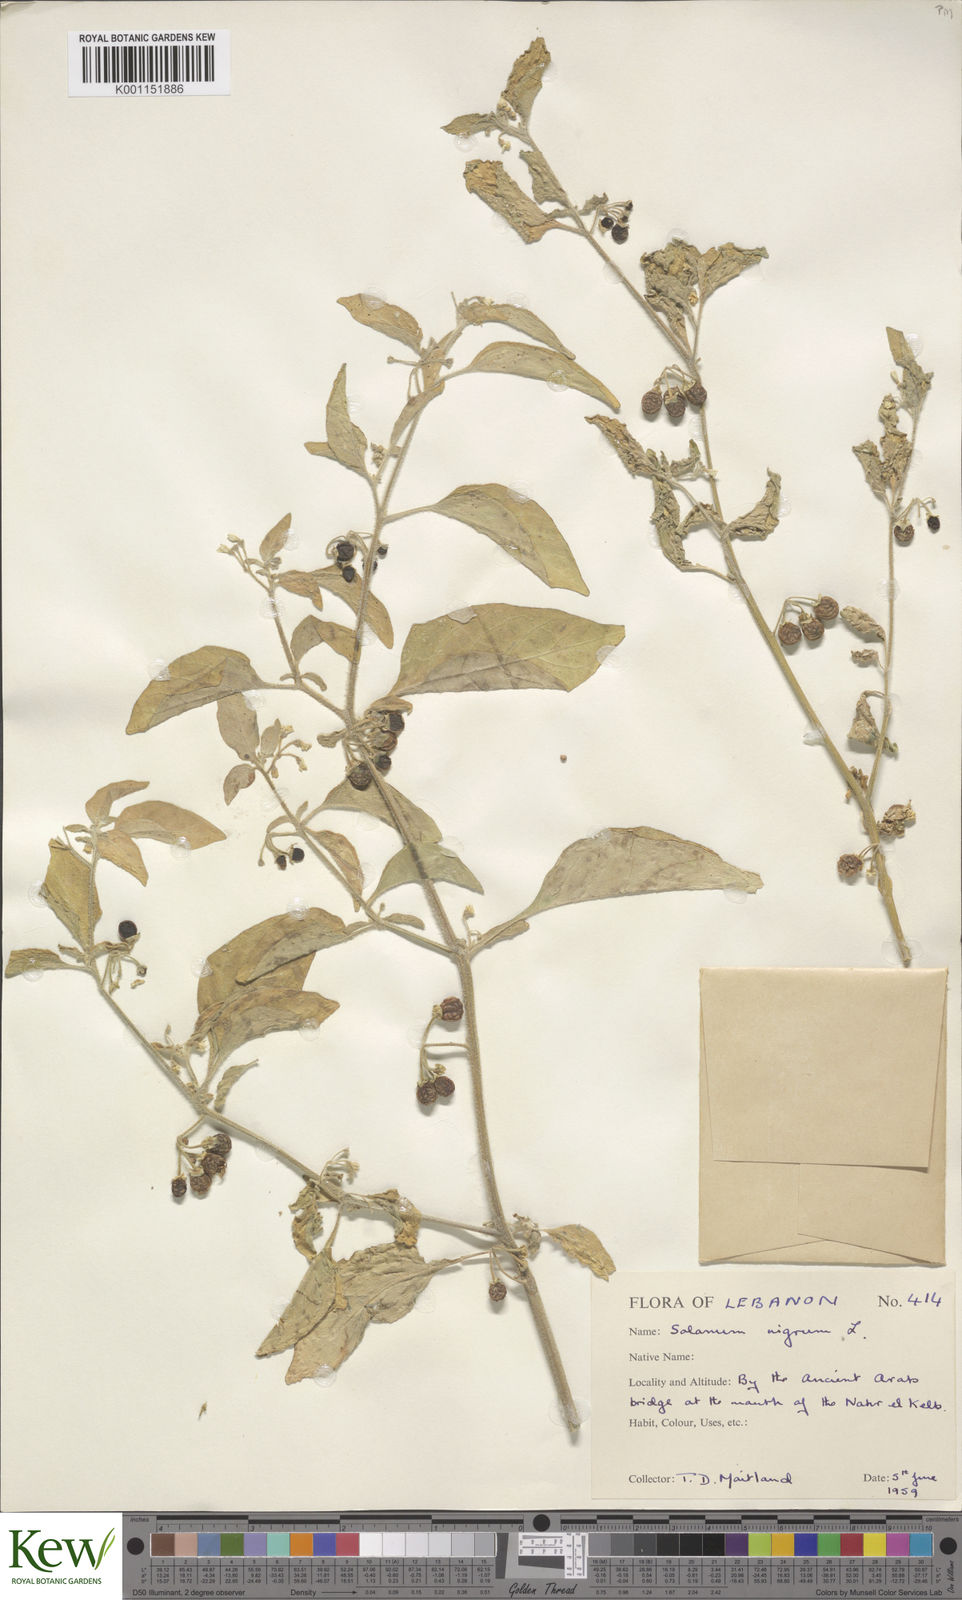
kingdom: Plantae
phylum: Tracheophyta
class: Magnoliopsida
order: Solanales
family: Solanaceae
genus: Solanum
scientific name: Solanum villosum
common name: Red nightshade
